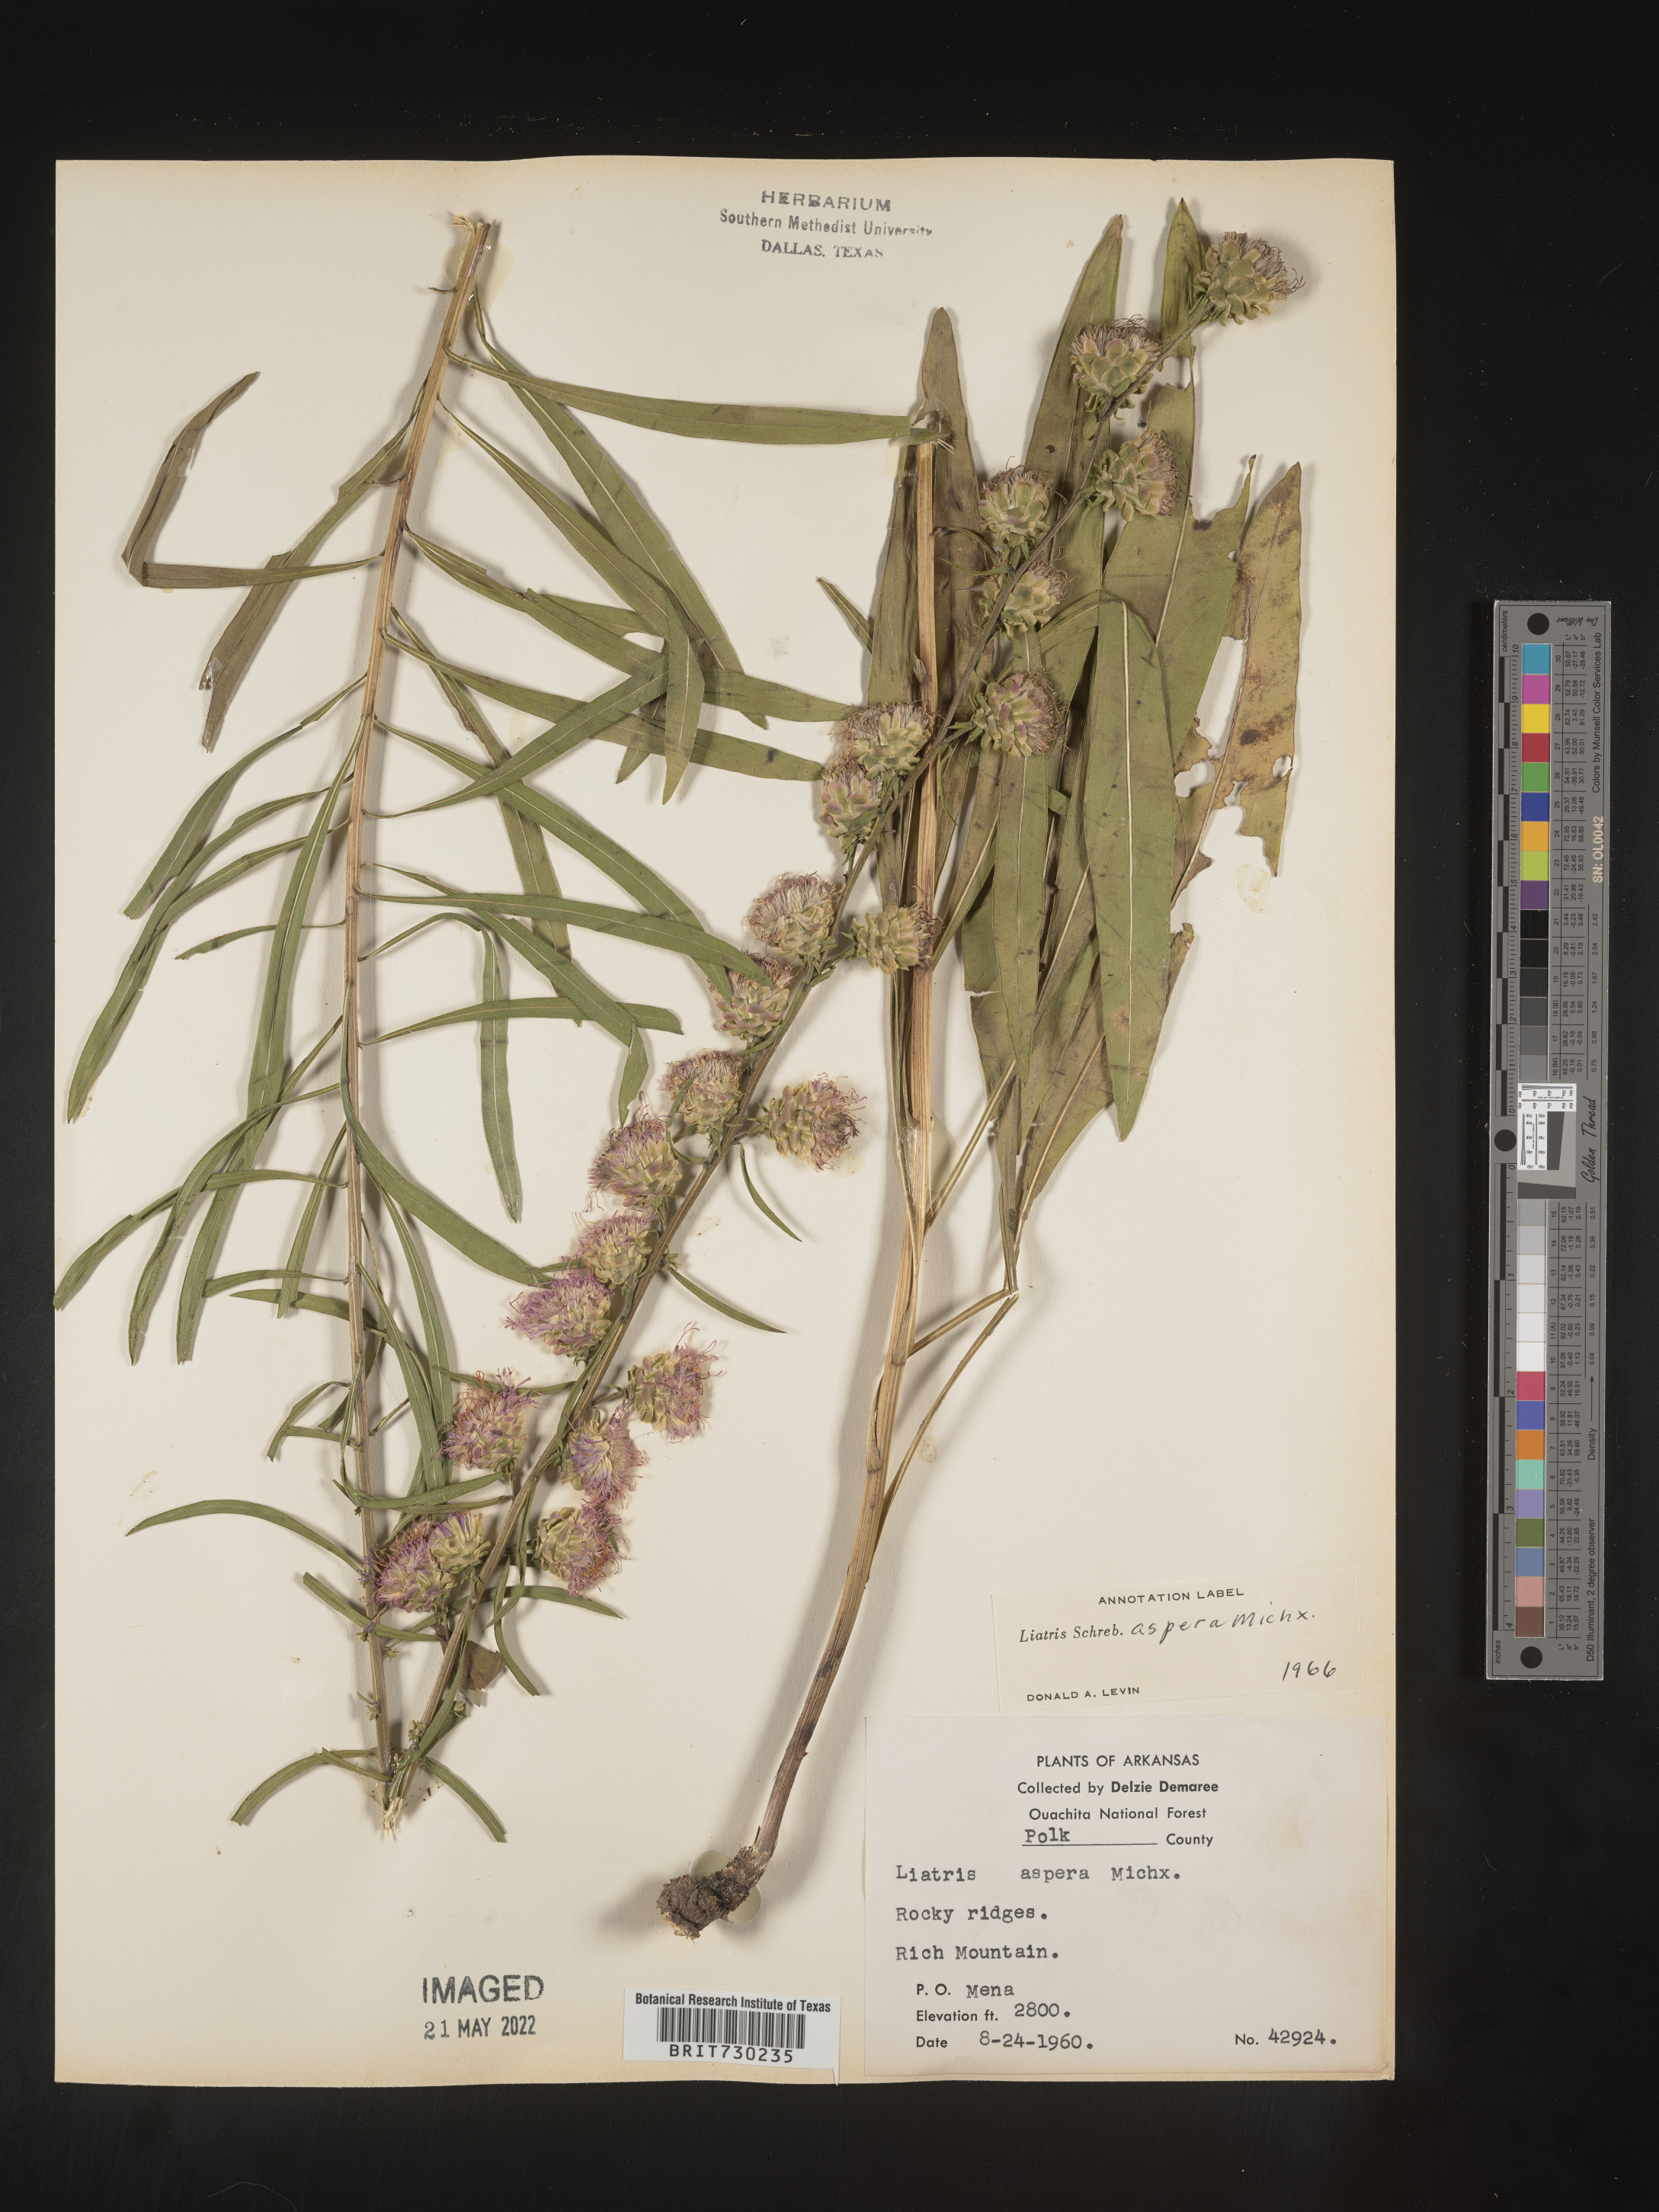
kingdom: Plantae
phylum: Tracheophyta
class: Magnoliopsida
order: Asterales
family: Asteraceae
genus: Liatris
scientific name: Liatris aspera
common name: Lacerate blazing-star
